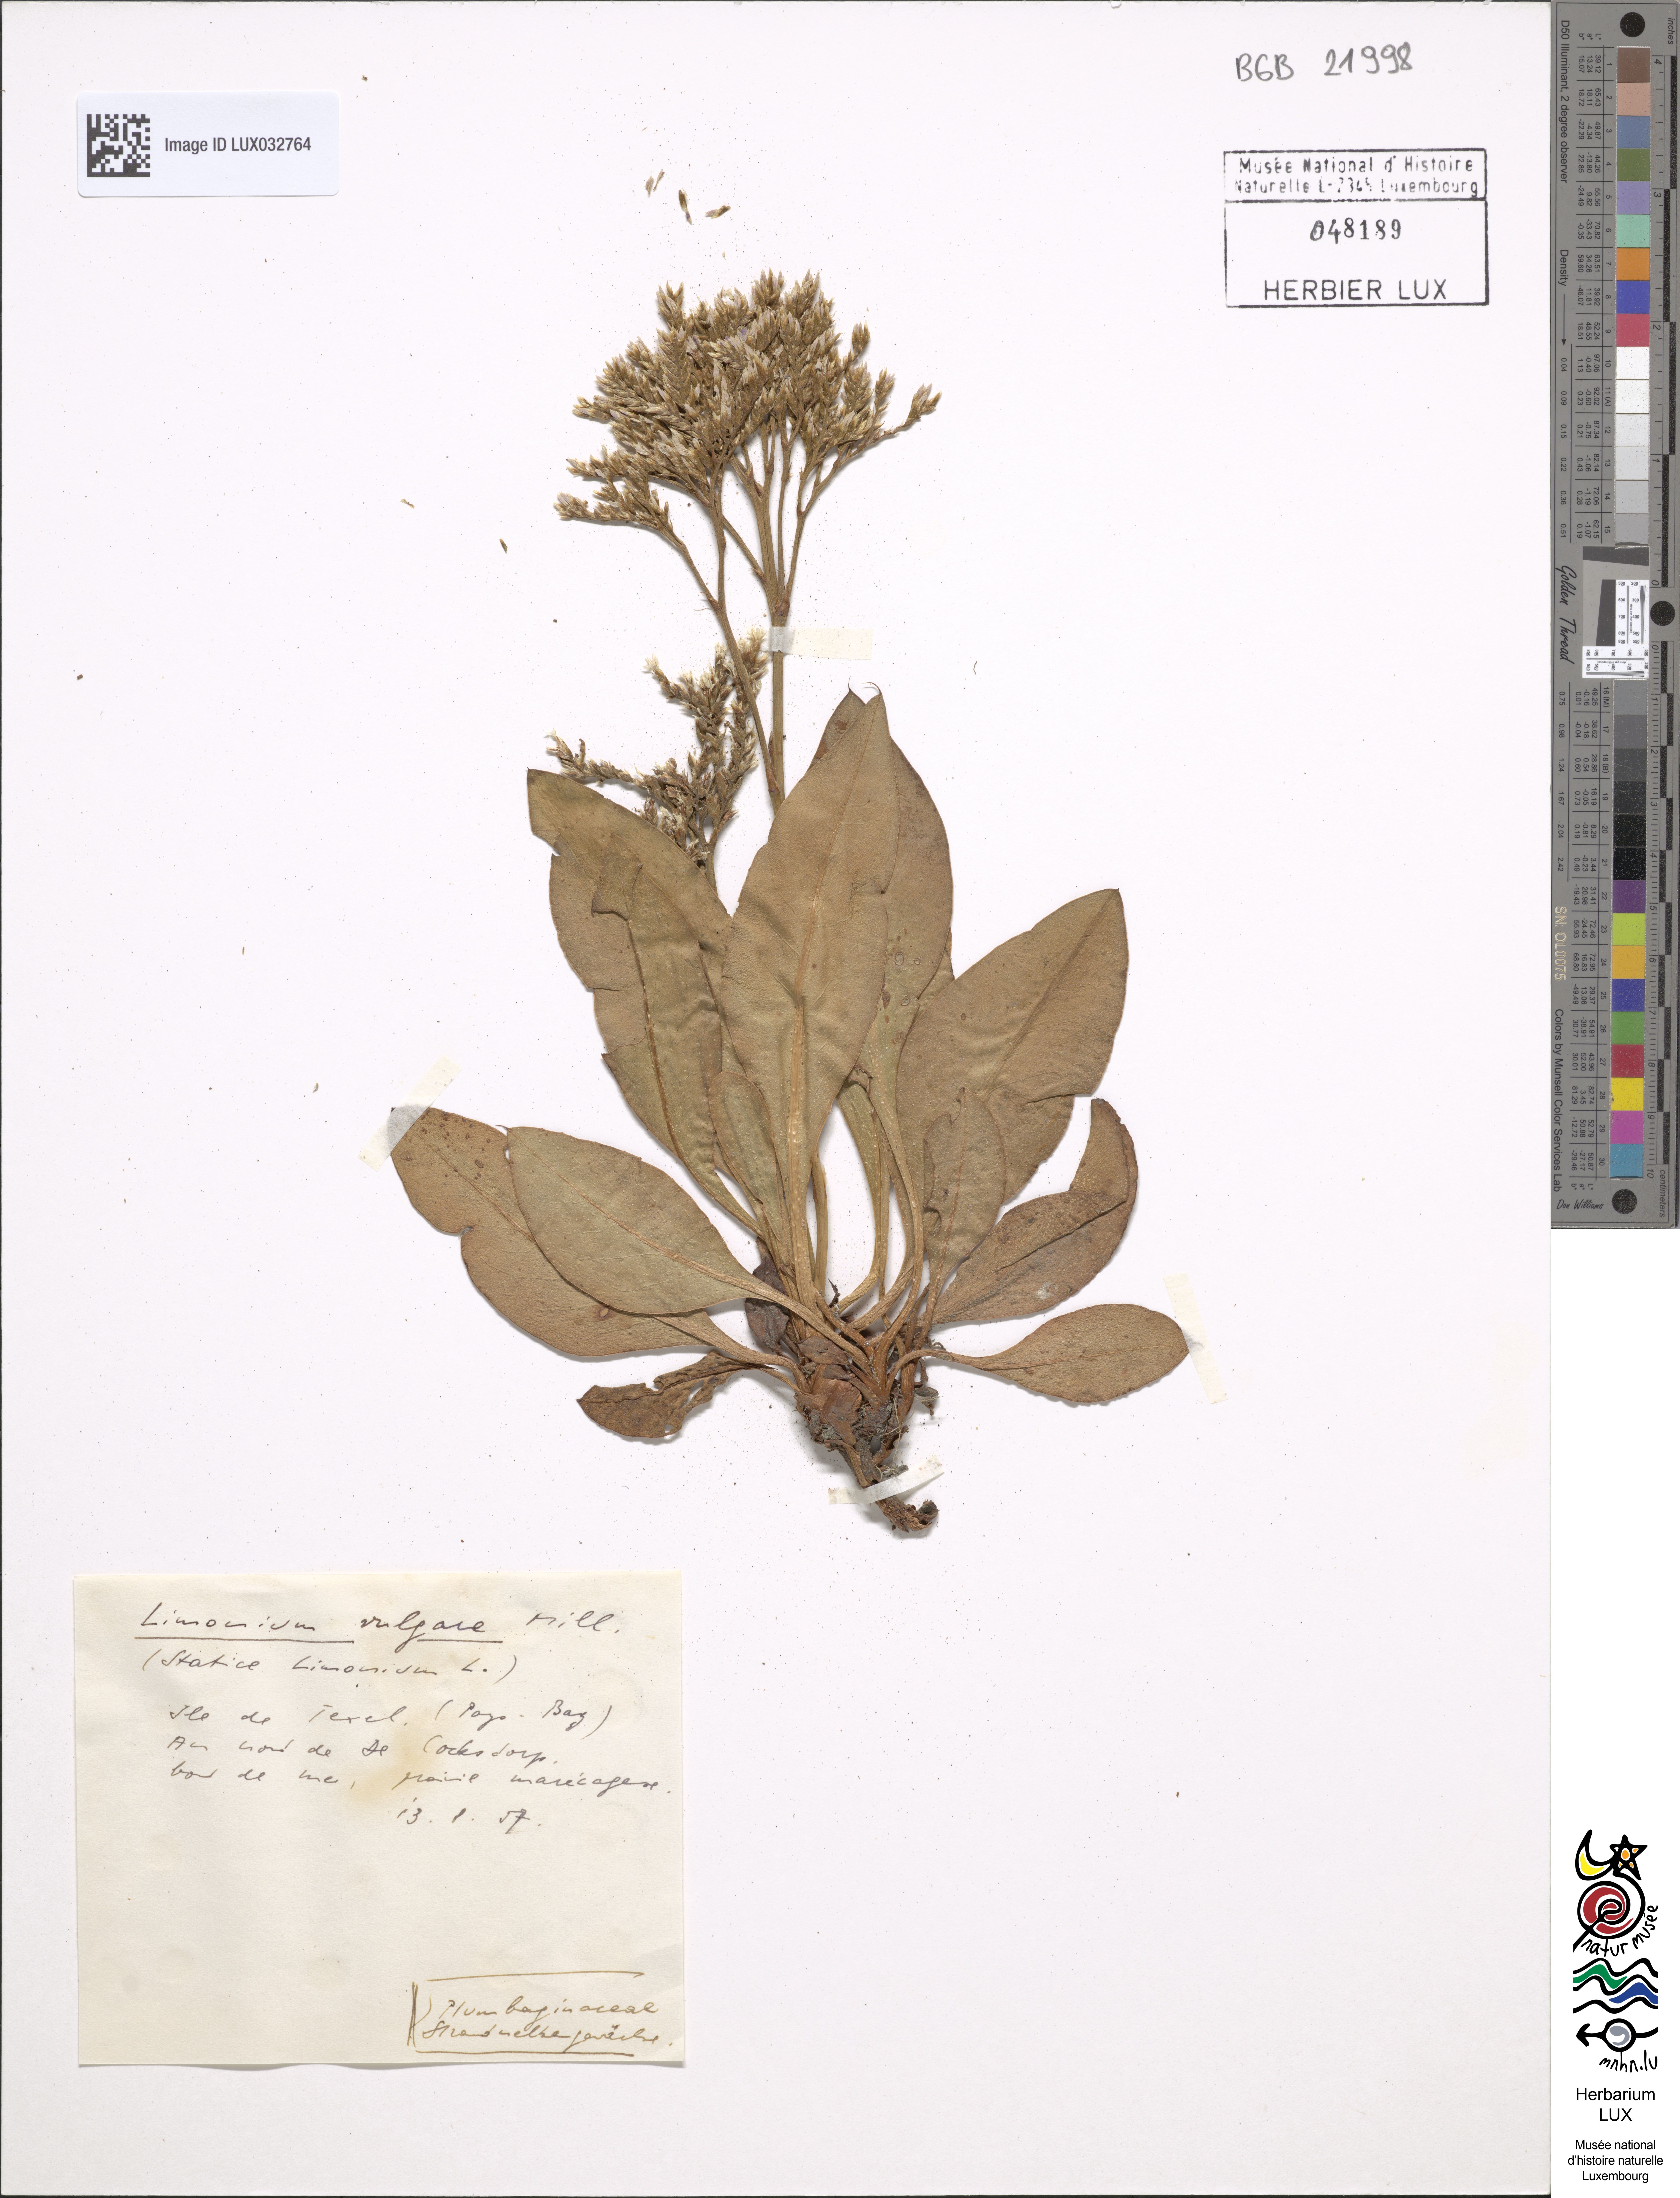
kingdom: Plantae
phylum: Tracheophyta
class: Magnoliopsida
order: Caryophyllales
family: Plumbaginaceae
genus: Limonium
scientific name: Limonium vulgare
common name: Common sea-lavender
